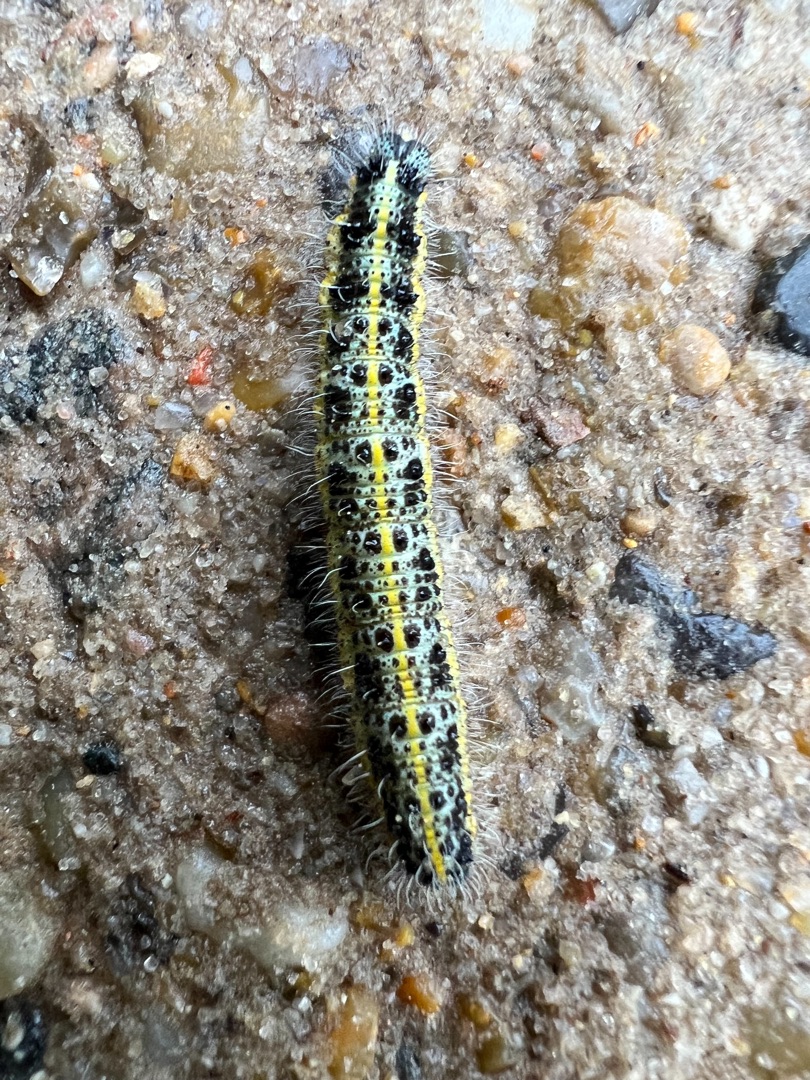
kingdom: Animalia
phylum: Arthropoda
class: Insecta
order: Lepidoptera
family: Pieridae
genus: Pieris
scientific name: Pieris brassicae
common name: Stor kålsommerfugl
